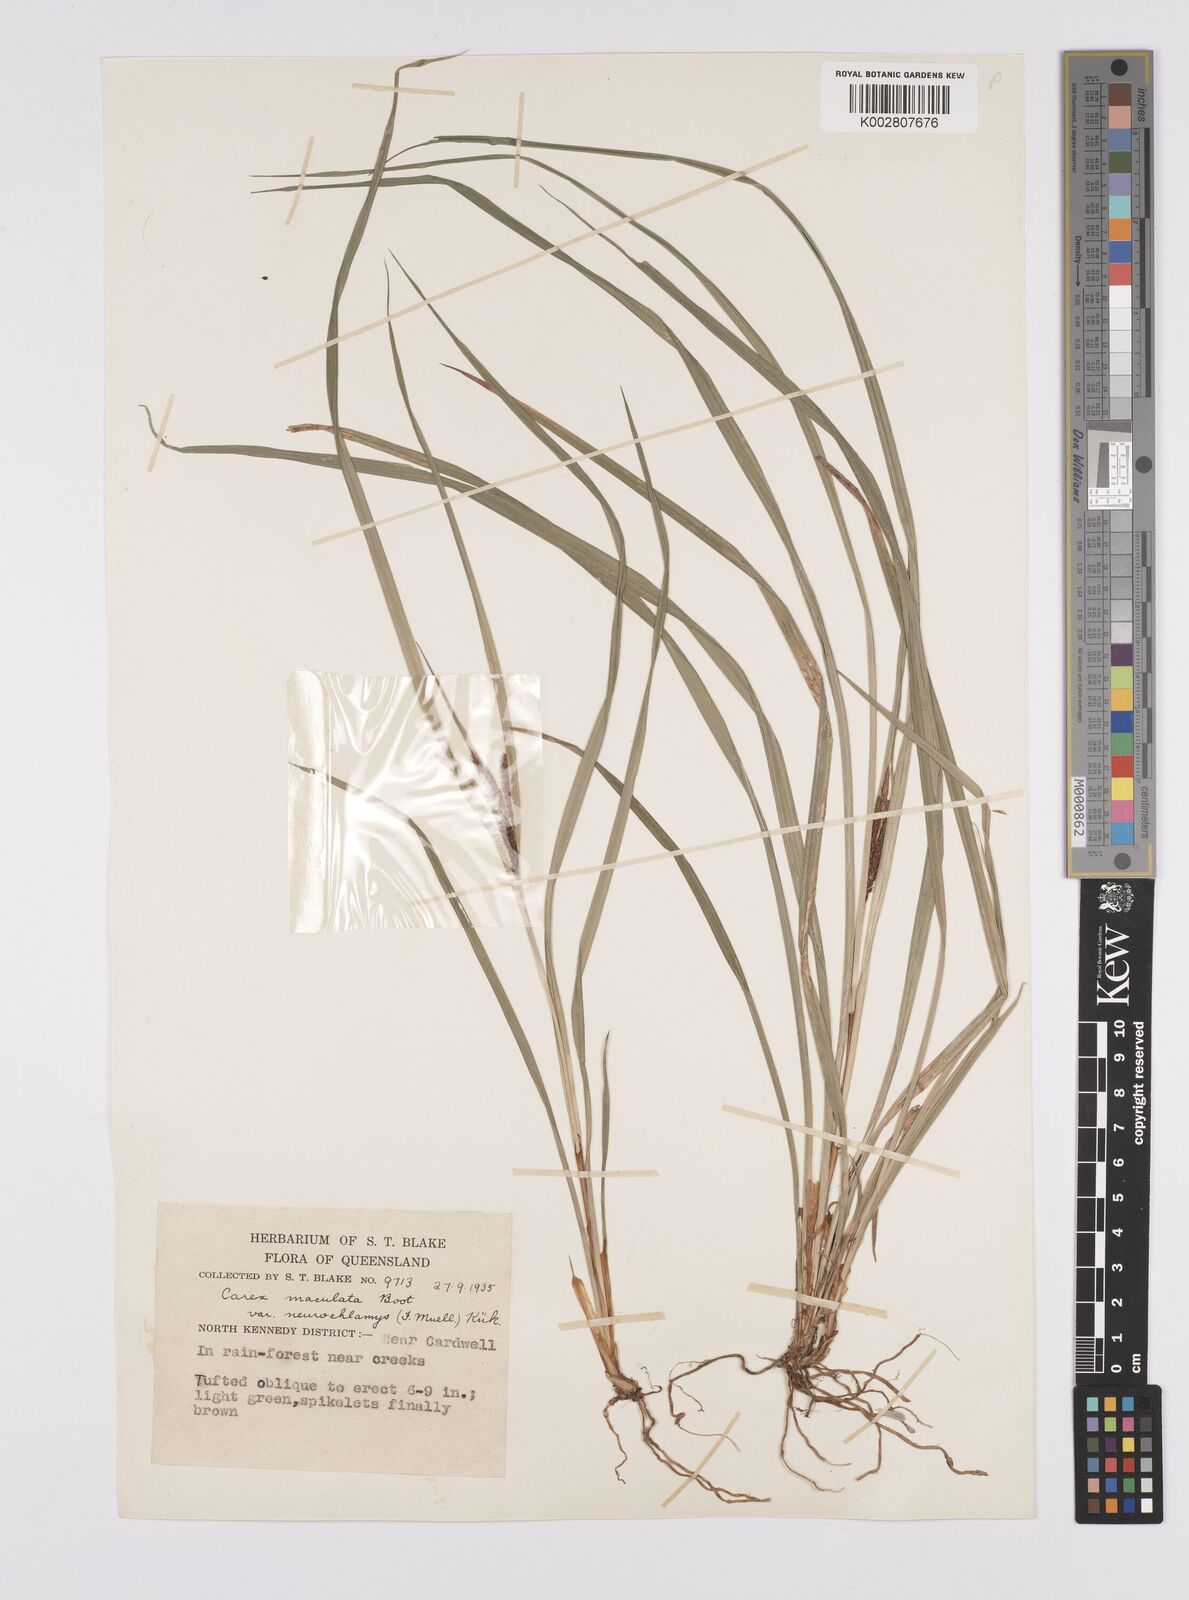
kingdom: Plantae
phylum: Tracheophyta
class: Liliopsida
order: Poales
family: Cyperaceae
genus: Carex
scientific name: Carex maculata
